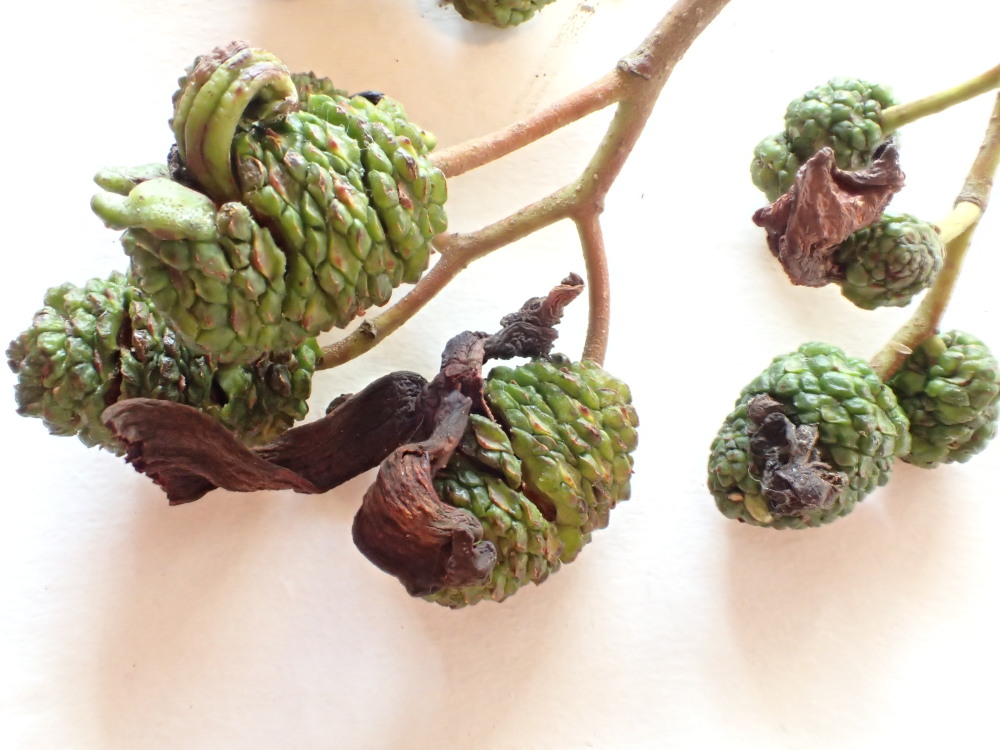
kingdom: Fungi
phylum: Ascomycota
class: Taphrinomycetes
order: Taphrinales
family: Taphrinaceae
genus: Taphrina
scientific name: Taphrina alni
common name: Alder tongue
